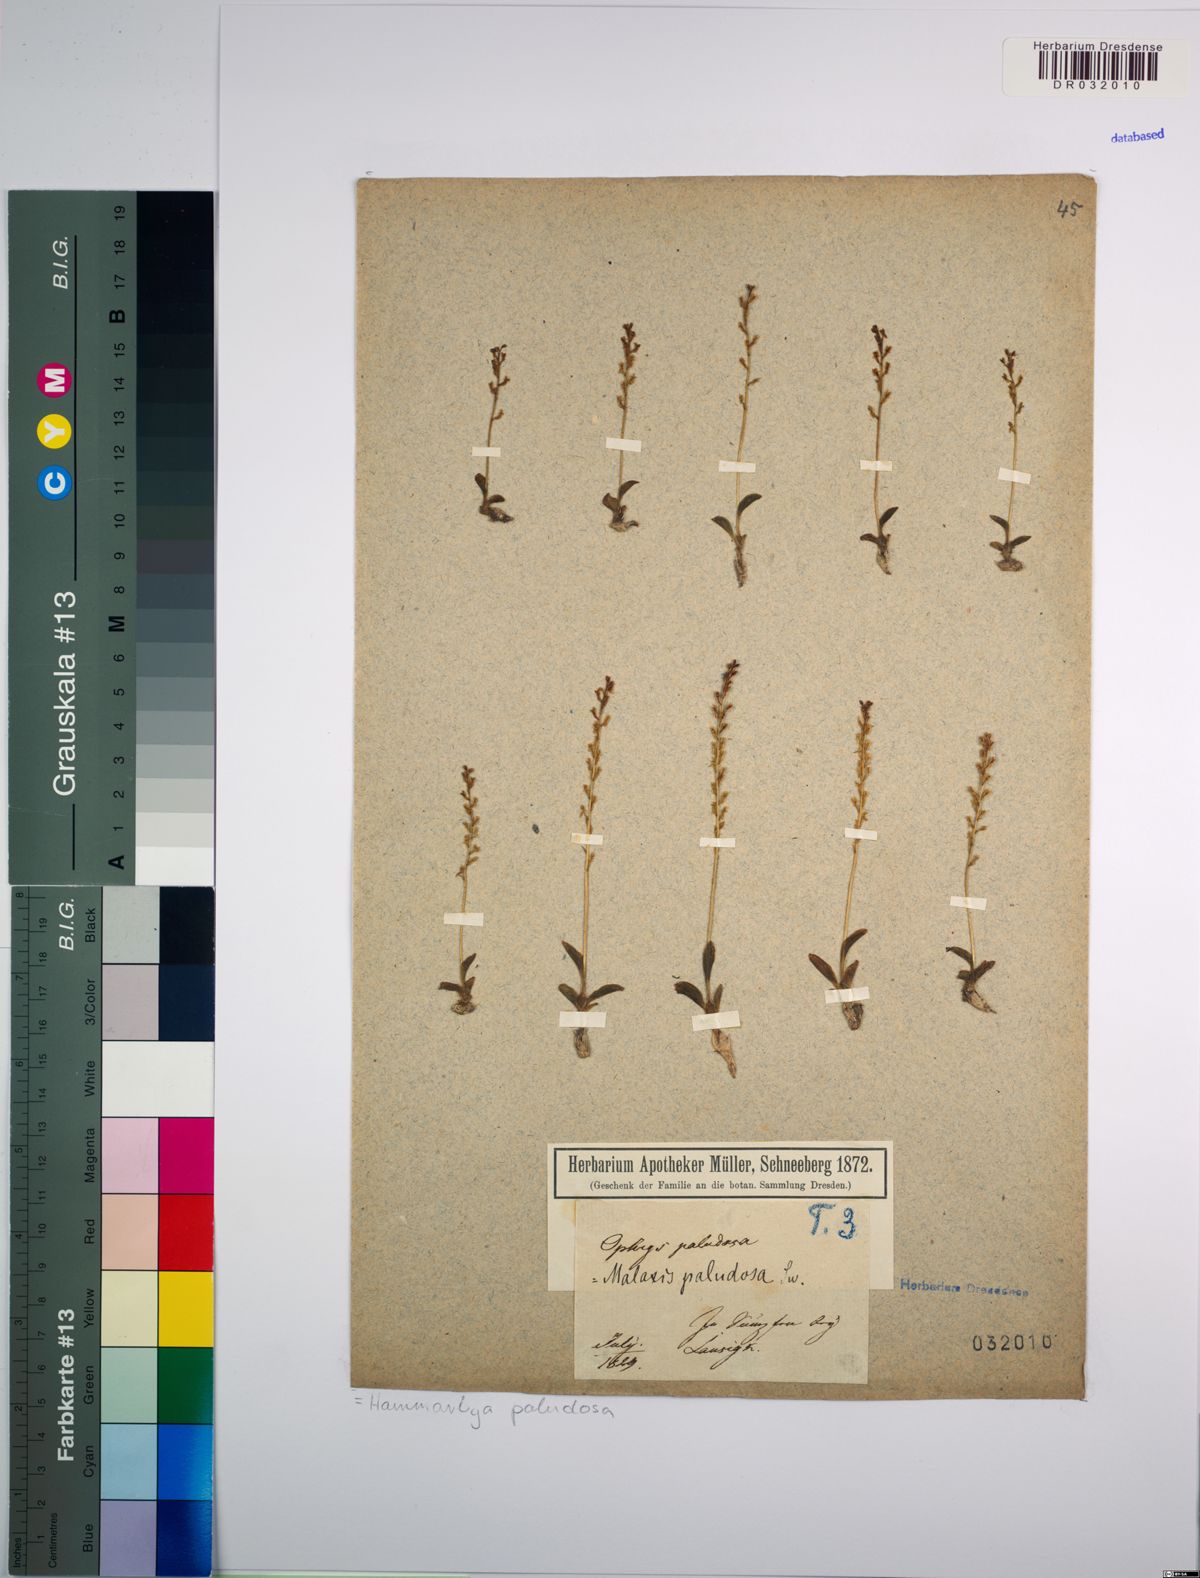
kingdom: Plantae
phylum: Tracheophyta
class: Liliopsida
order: Asparagales
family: Orchidaceae
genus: Hammarbya
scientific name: Hammarbya paludosa
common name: Bog orchid
